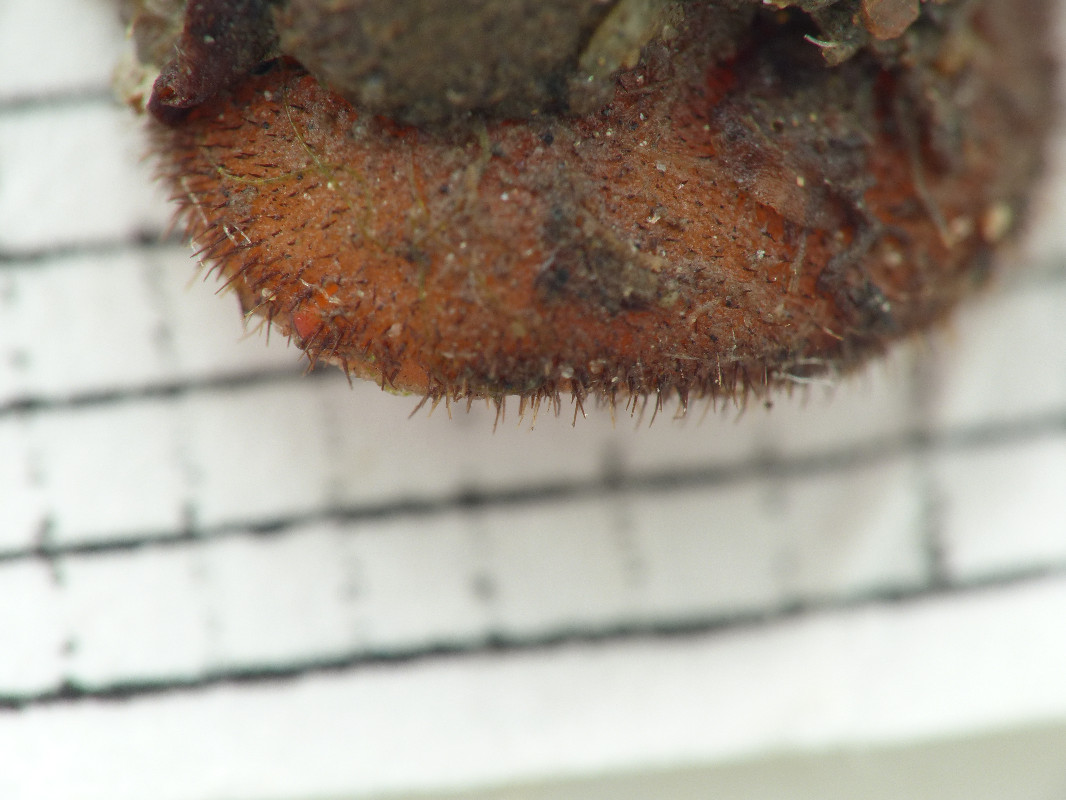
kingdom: Fungi
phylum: Ascomycota
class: Pezizomycetes
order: Pezizales
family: Pyronemataceae
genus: Scutellinia
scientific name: Scutellinia
